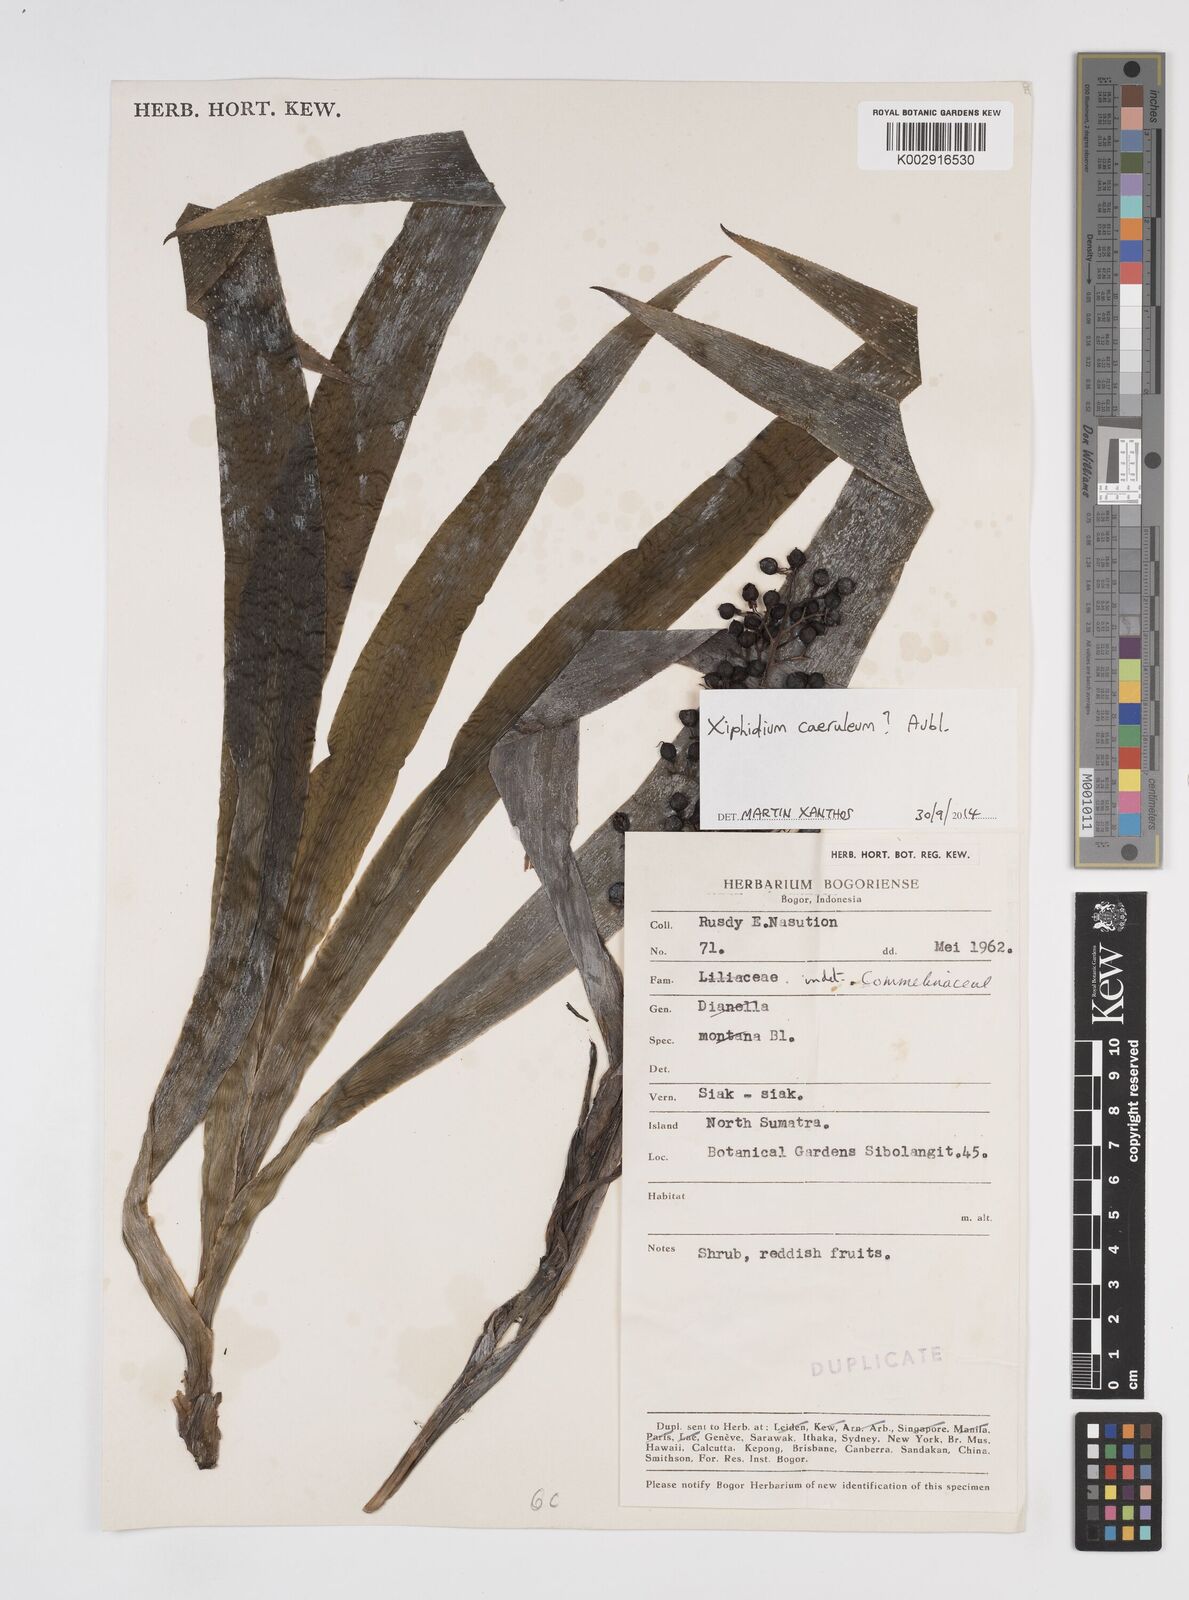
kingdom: Plantae
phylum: Tracheophyta
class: Liliopsida
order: Commelinales
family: Haemodoraceae
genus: Xiphidium
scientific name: Xiphidium caeruleum
